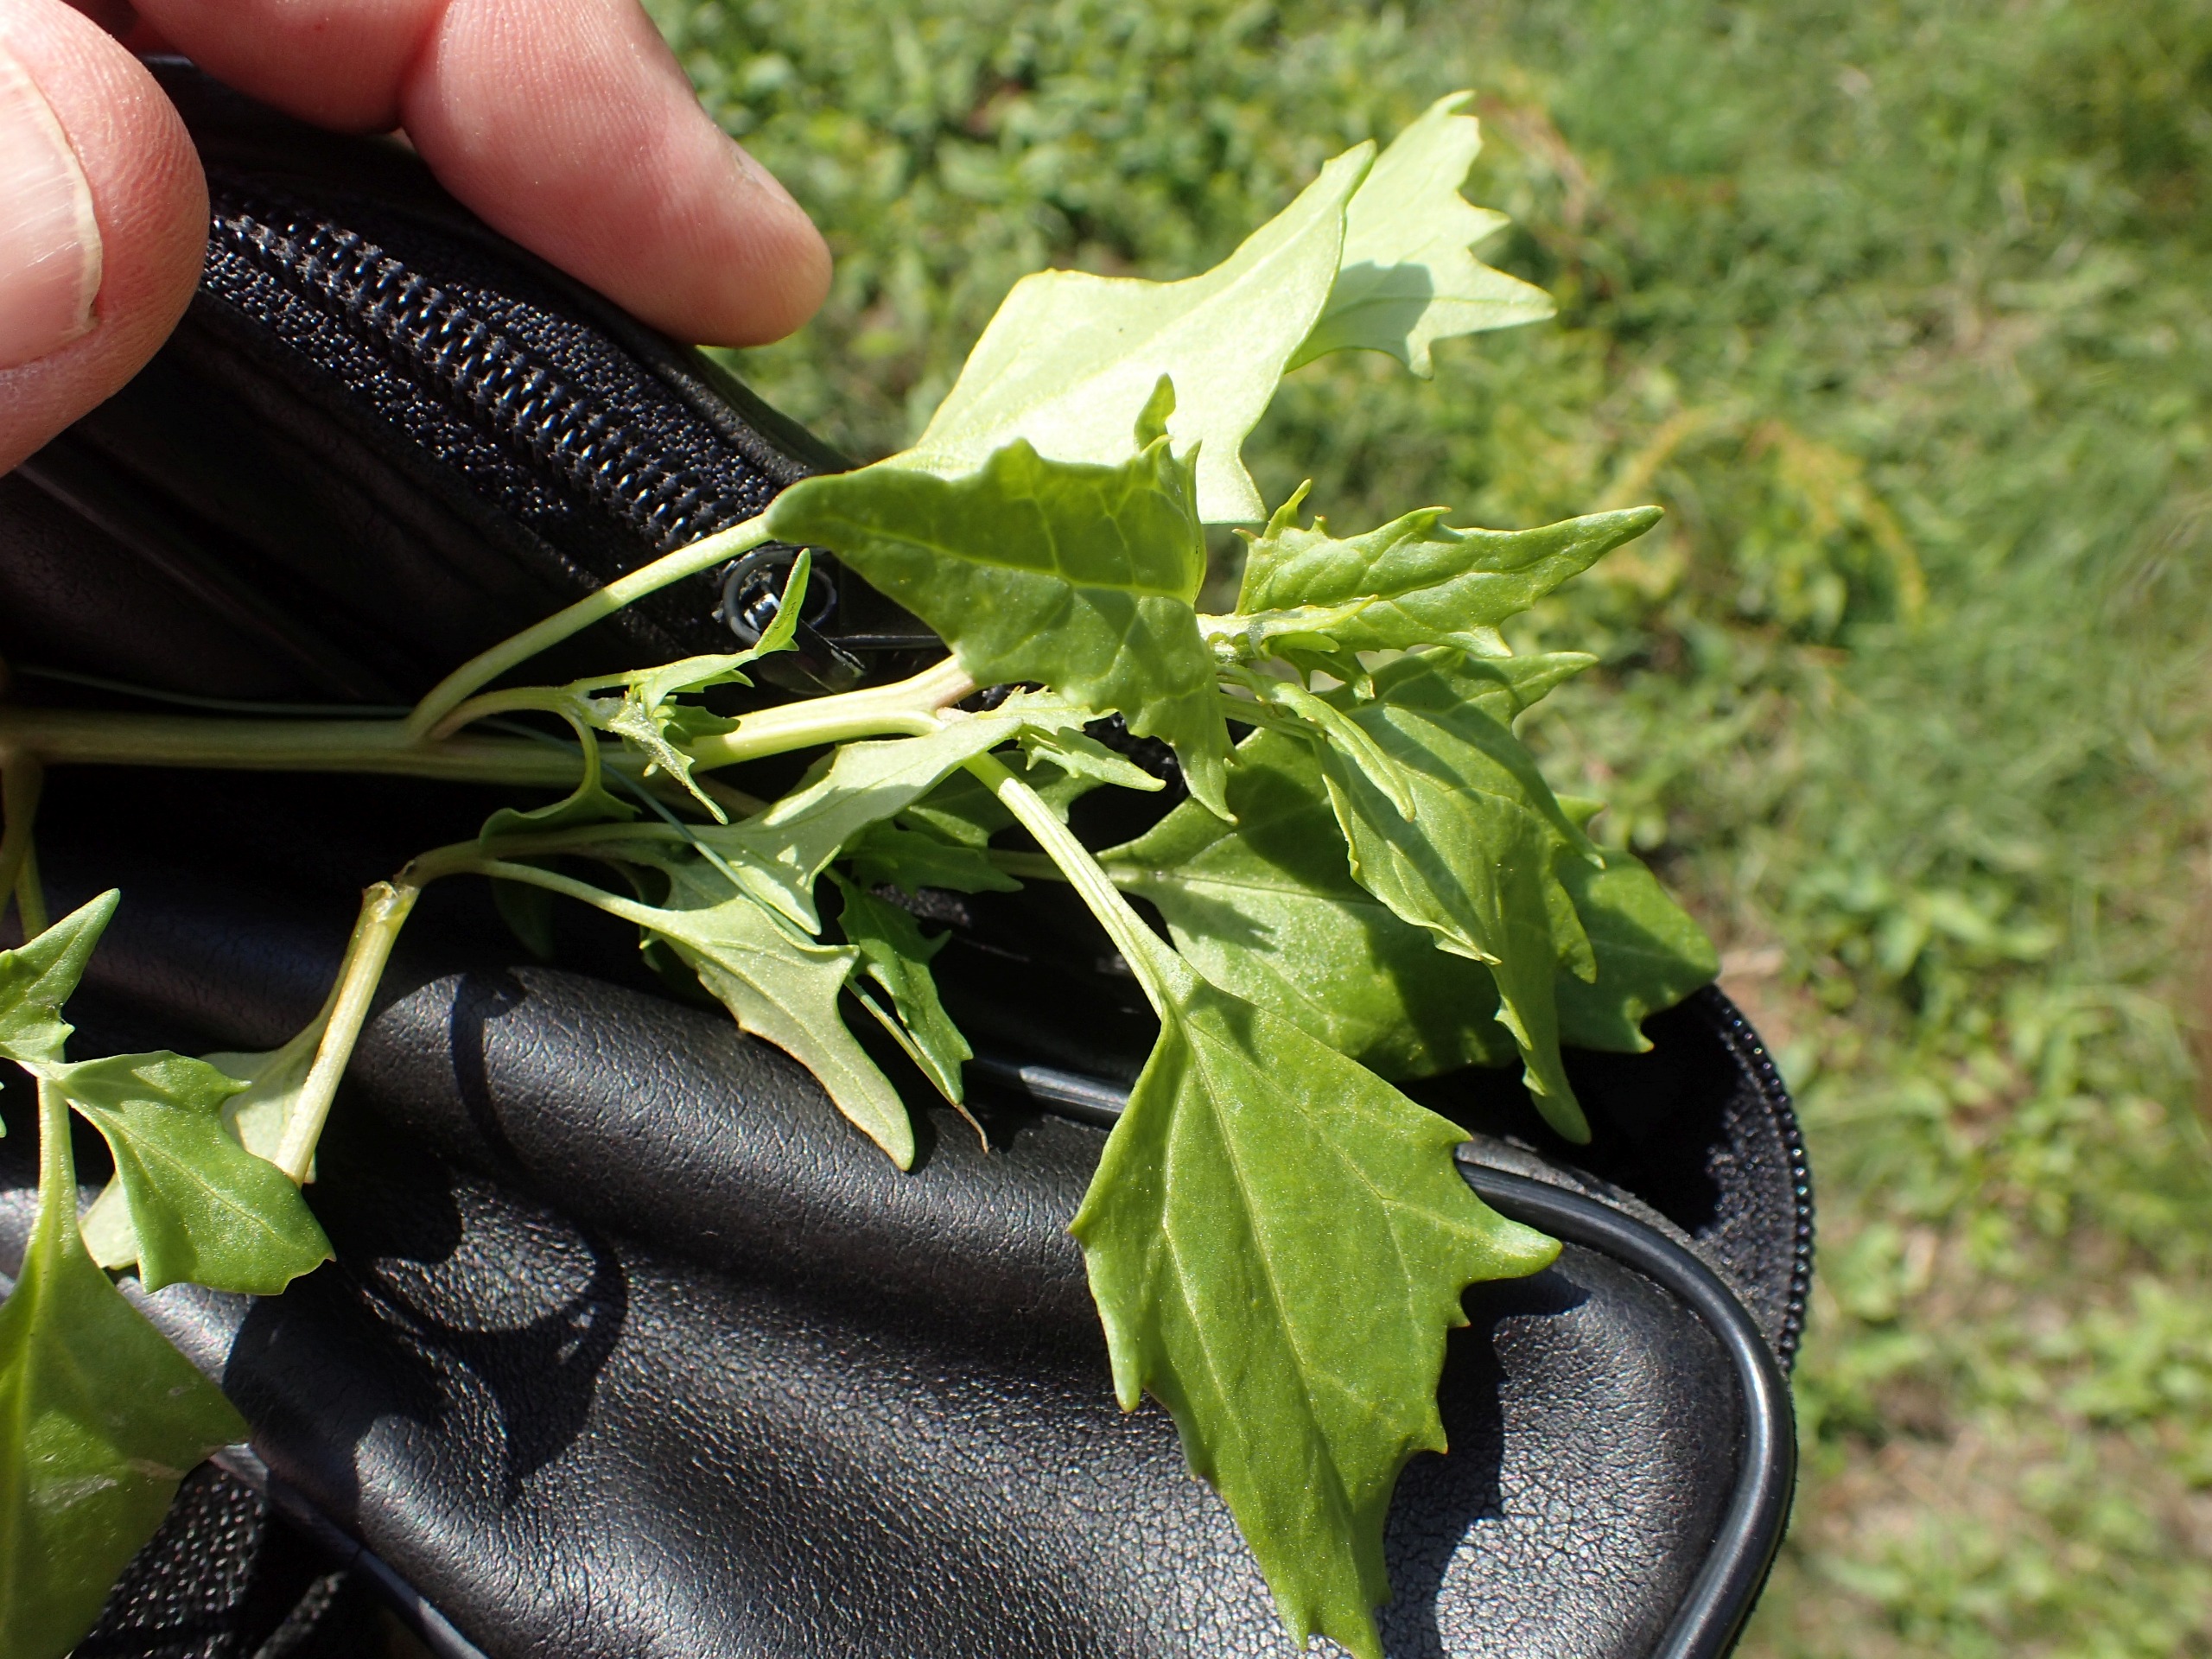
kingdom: Plantae
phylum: Tracheophyta
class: Magnoliopsida
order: Caryophyllales
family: Amaranthaceae
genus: Oxybasis
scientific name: Oxybasis rubra
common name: Rød gåsefod
